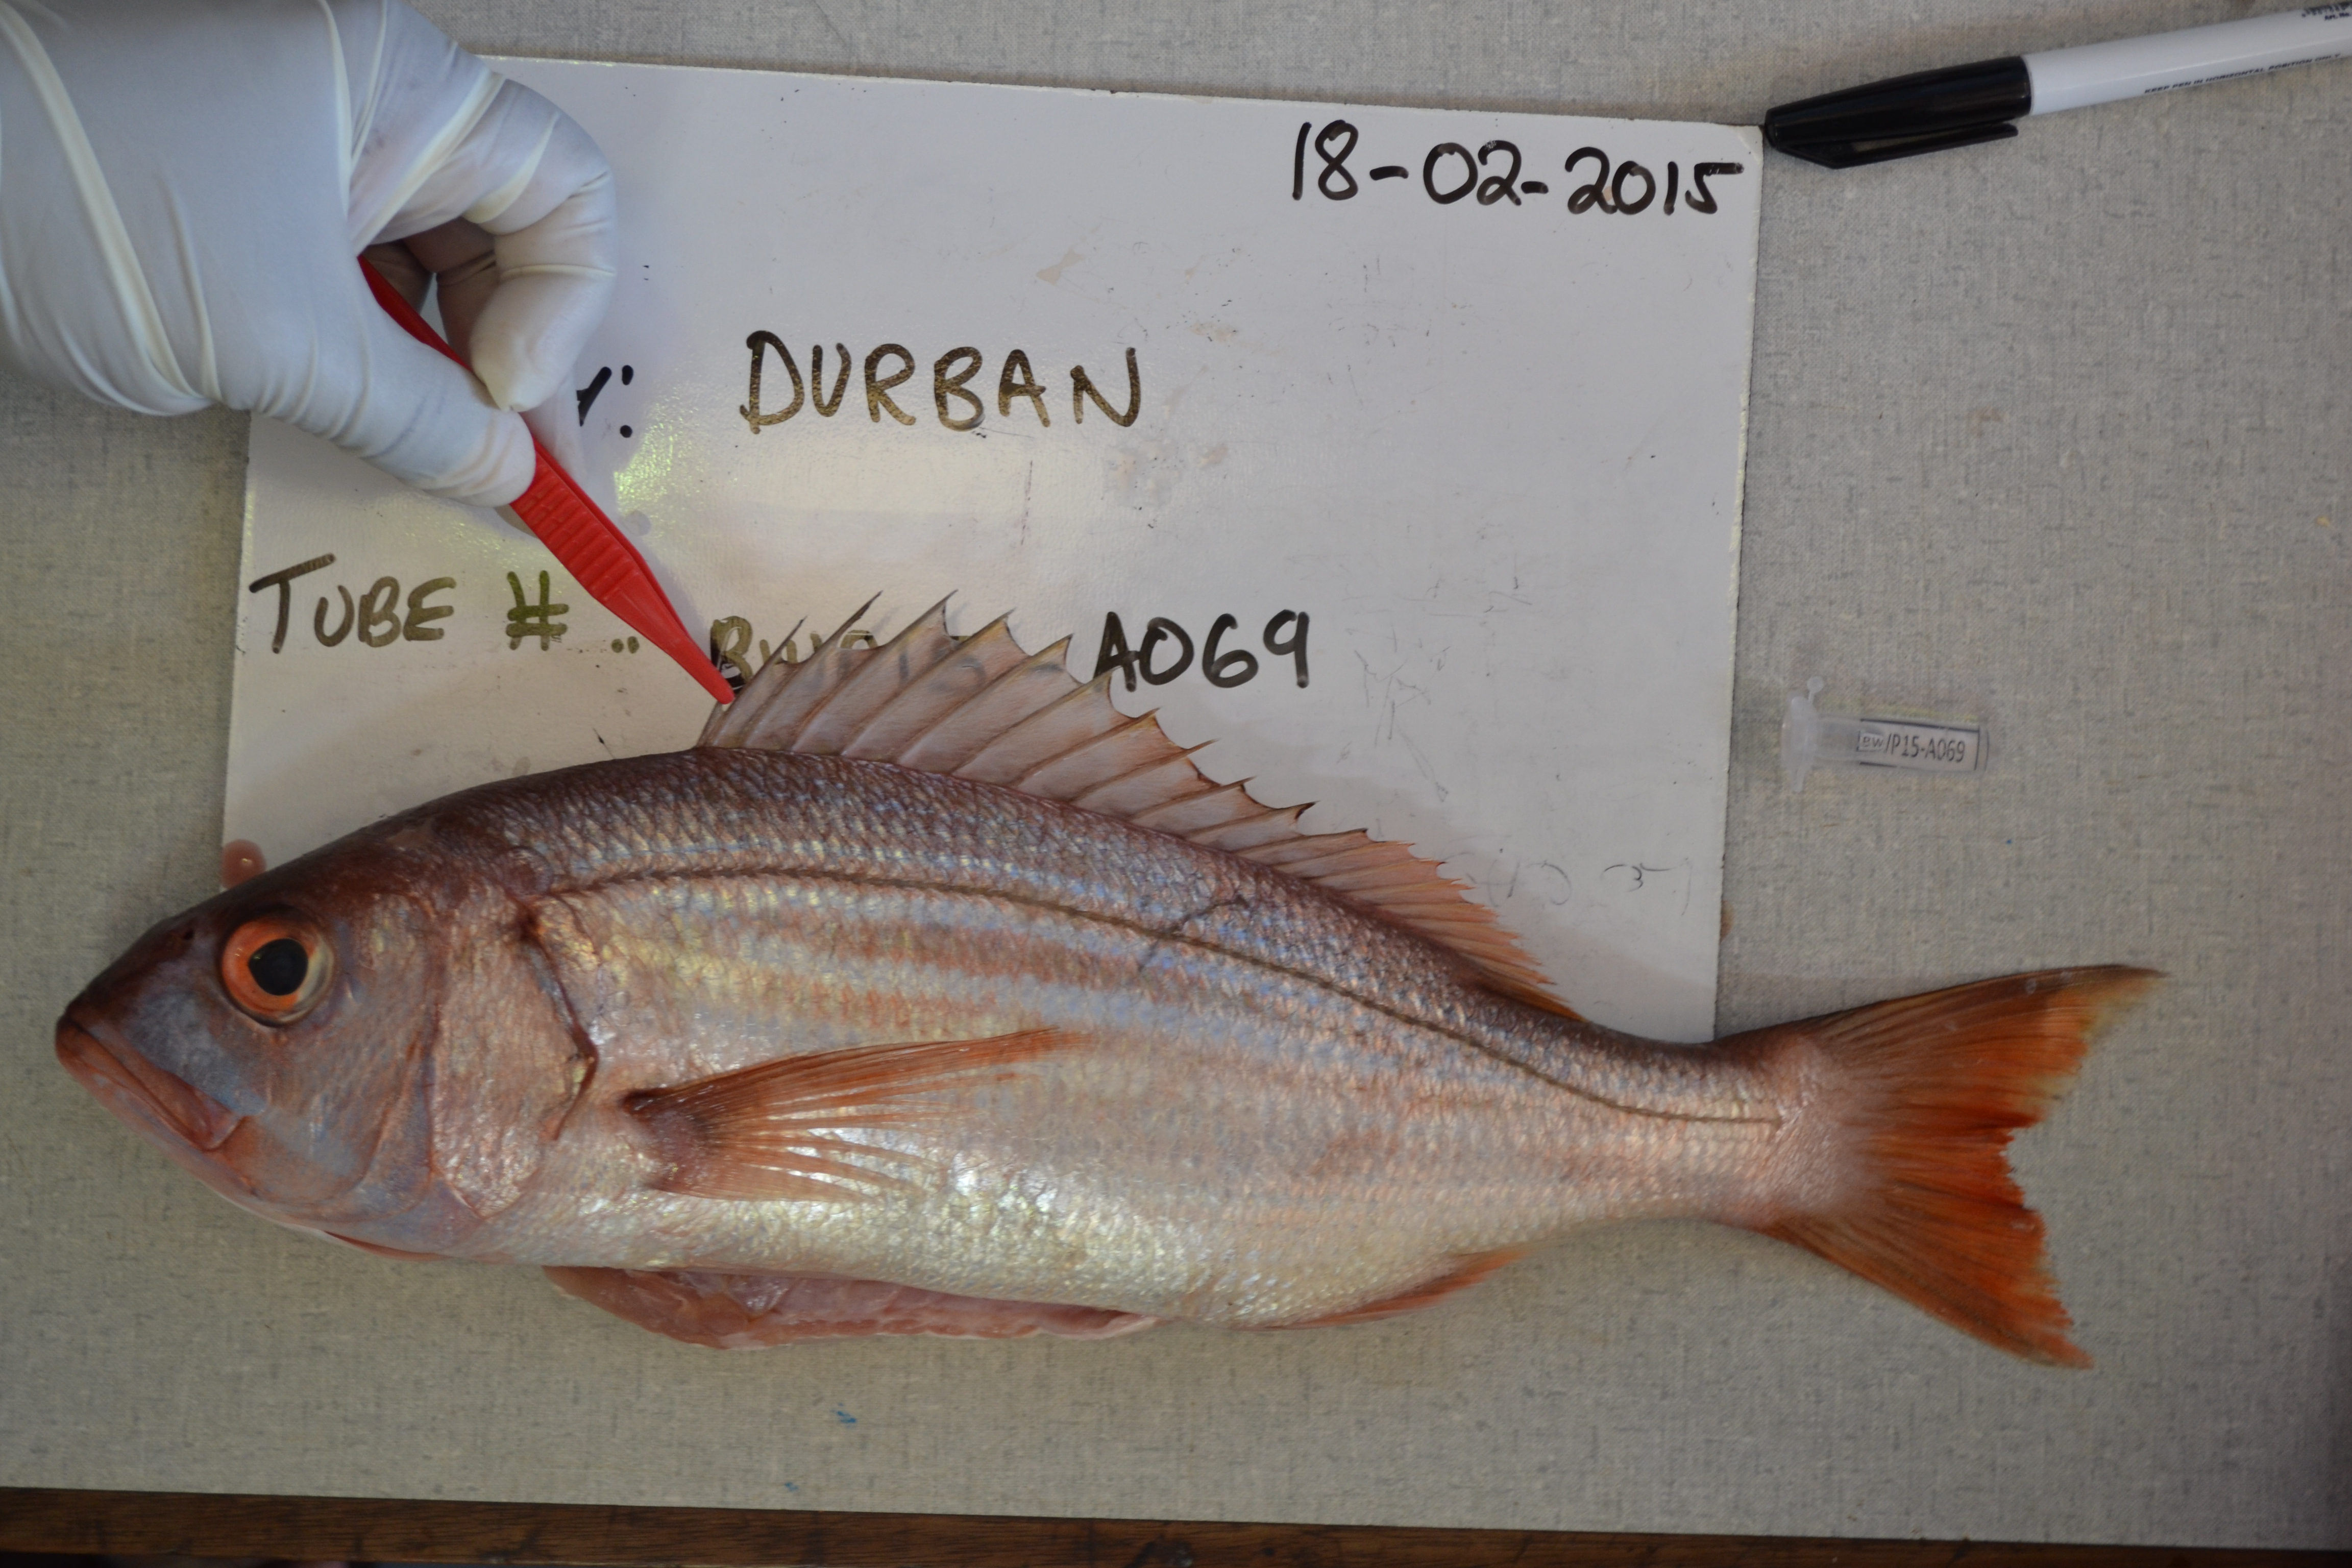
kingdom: Animalia
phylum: Chordata
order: Perciformes
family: Sparidae
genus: Argyrozona
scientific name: Argyrozona argyrozona
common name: Carpenter
